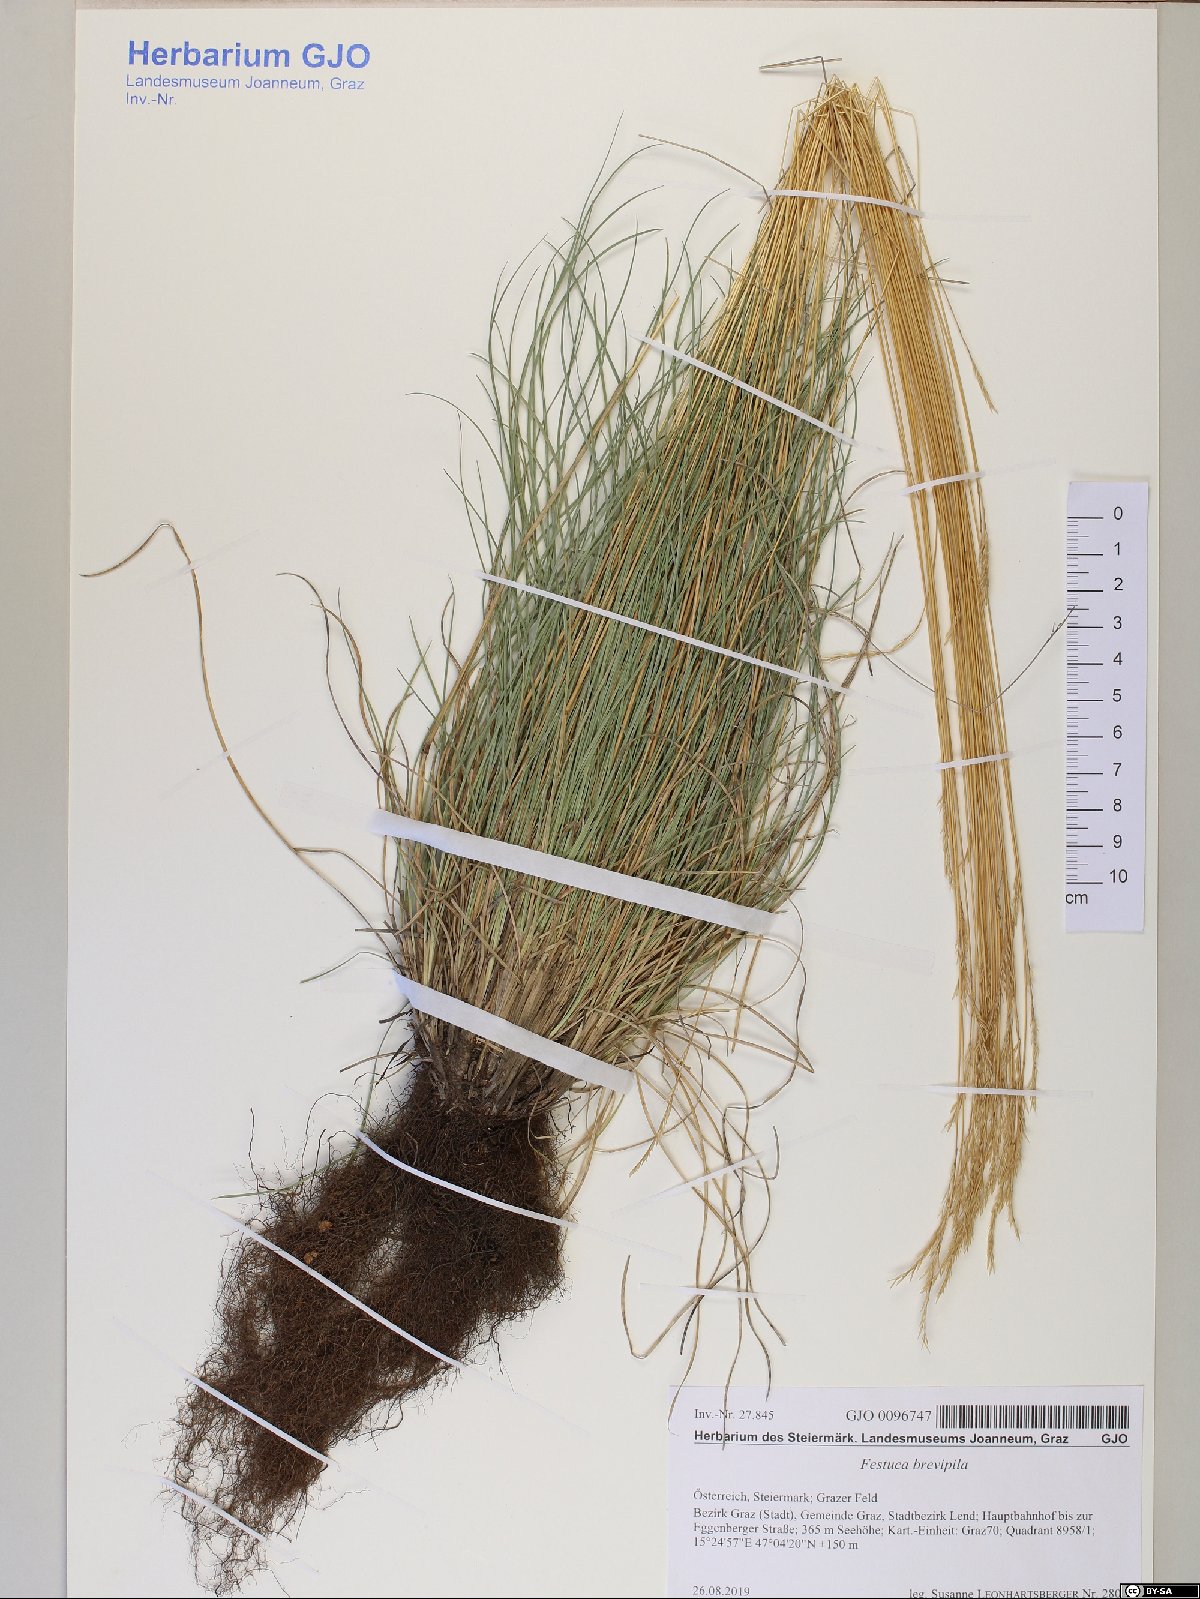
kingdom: Plantae
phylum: Tracheophyta
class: Liliopsida
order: Poales
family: Poaceae
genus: Festuca
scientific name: Festuca trachyphylla
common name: Hard fescue
